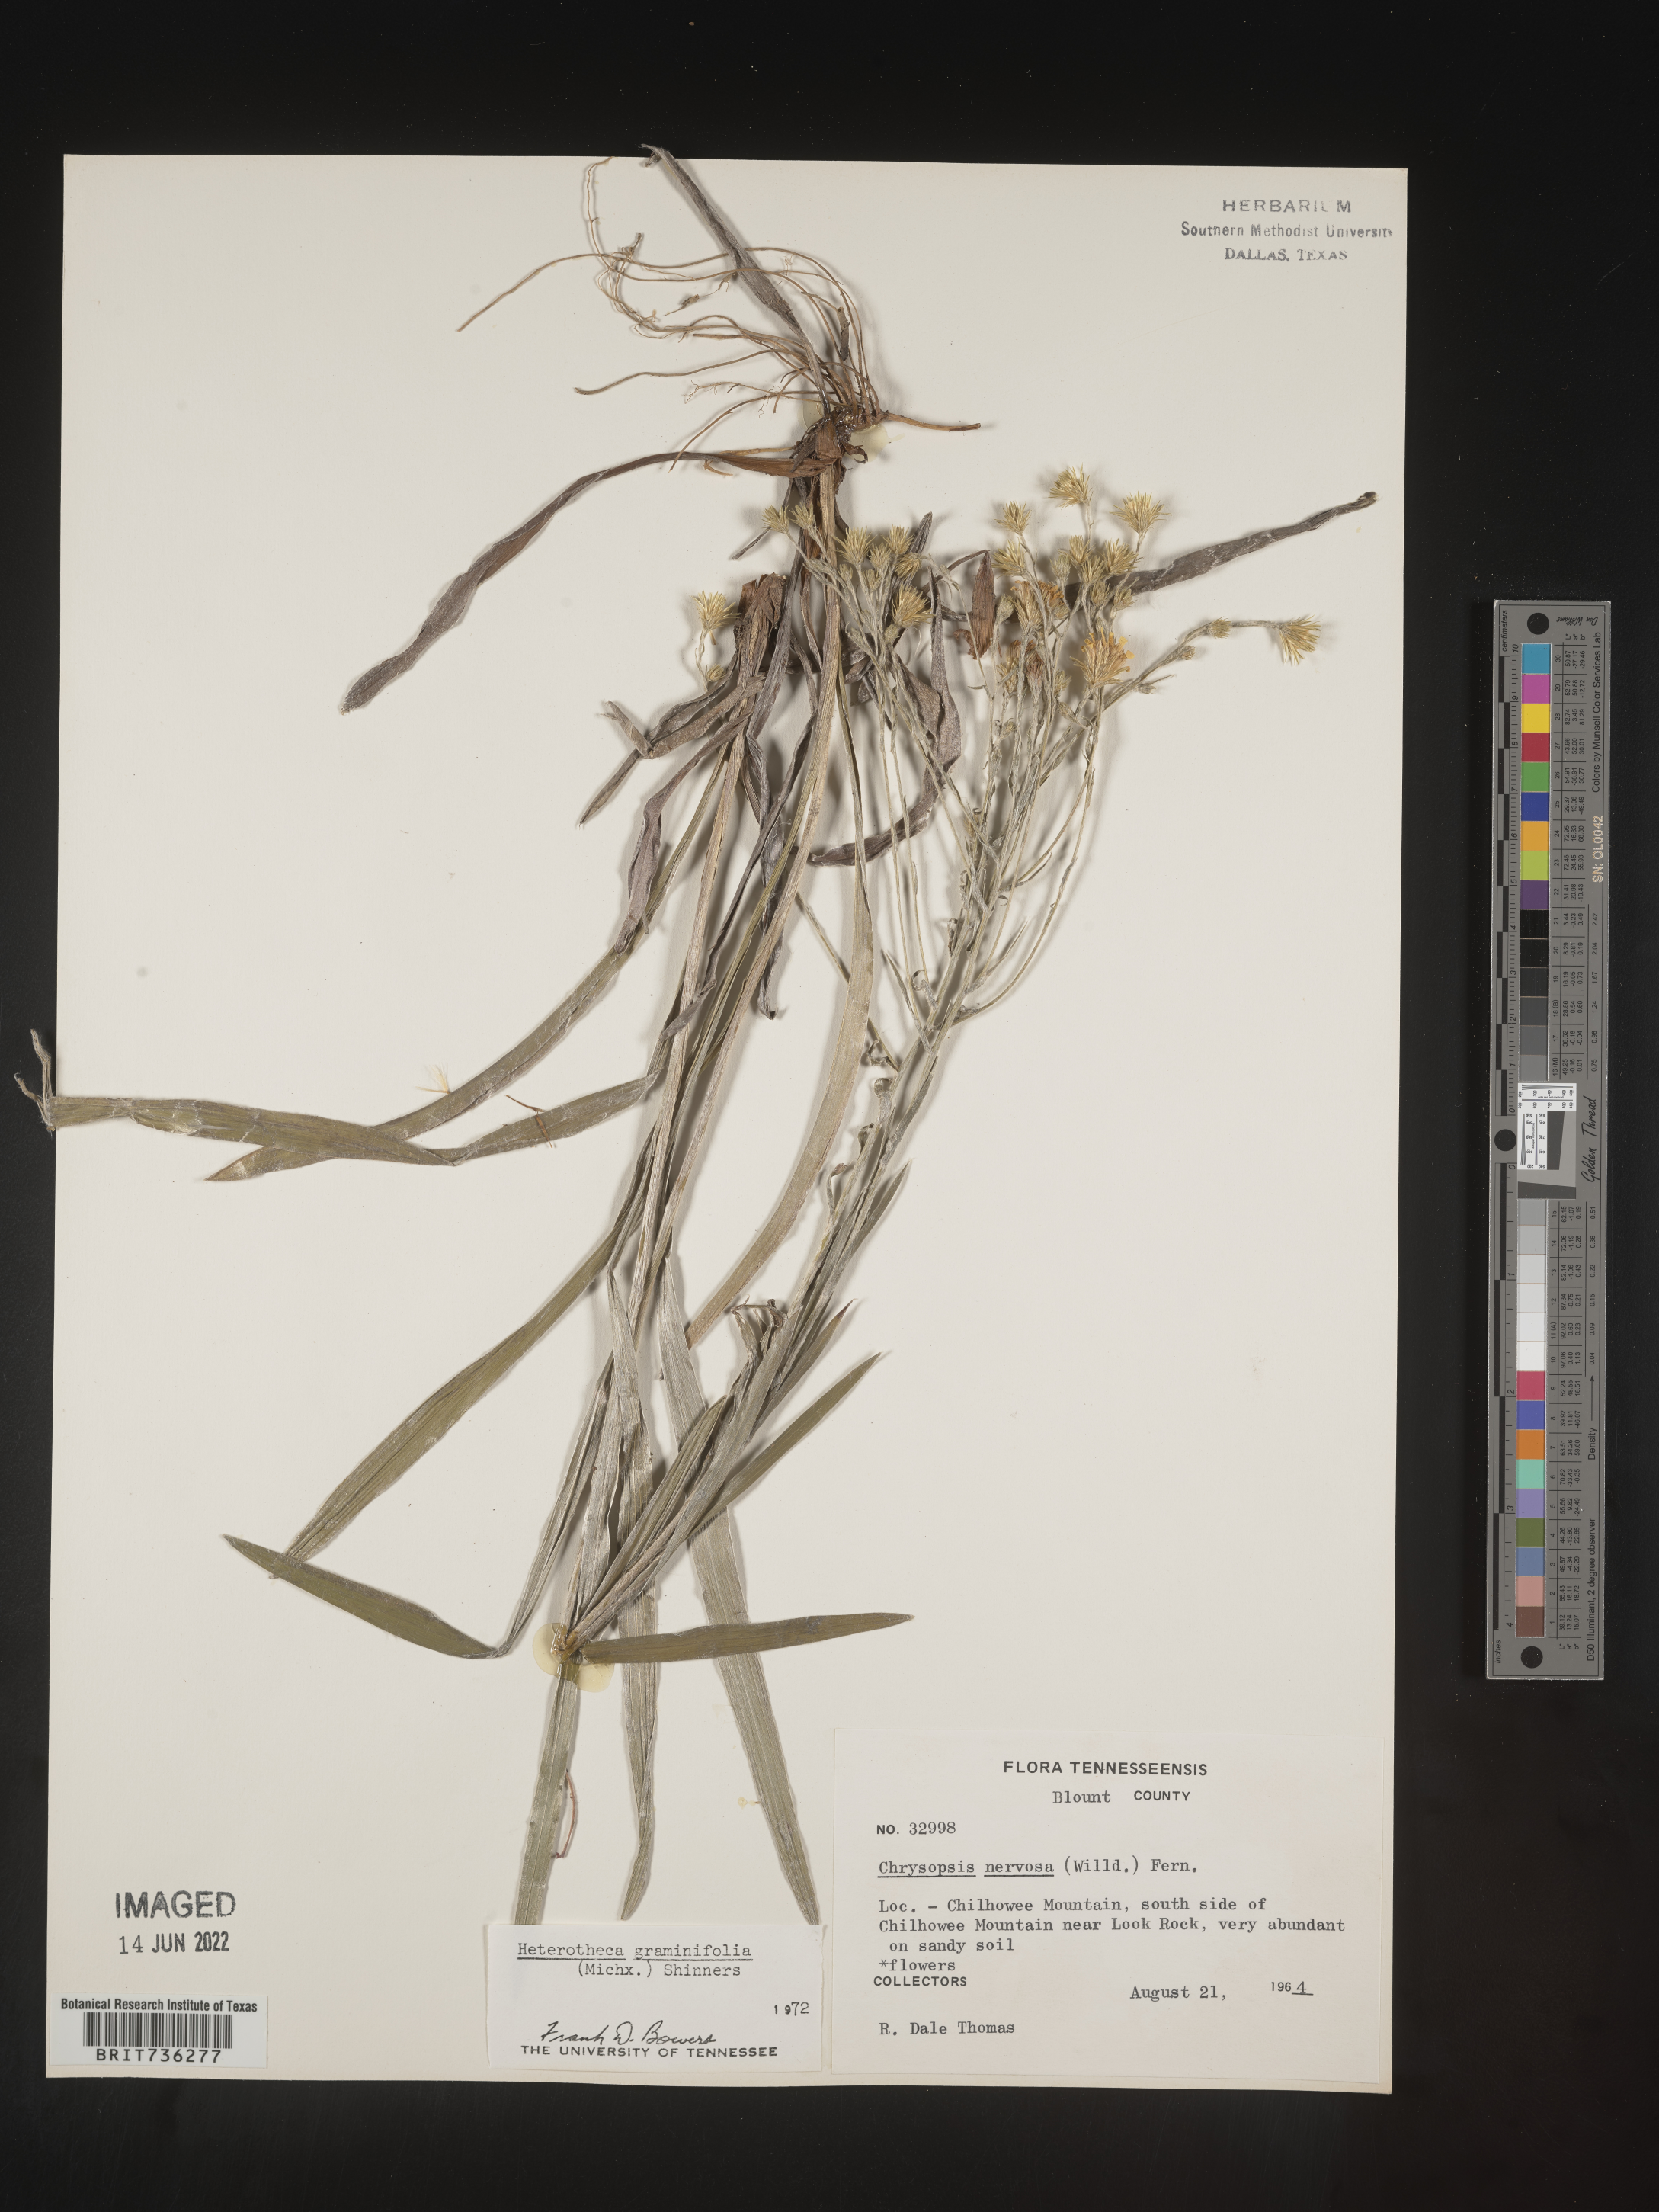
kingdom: Plantae
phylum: Tracheophyta
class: Magnoliopsida
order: Asterales
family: Asteraceae
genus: Pityopsis
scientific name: Pityopsis graminifolia
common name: Grass-leaf golden-aster
